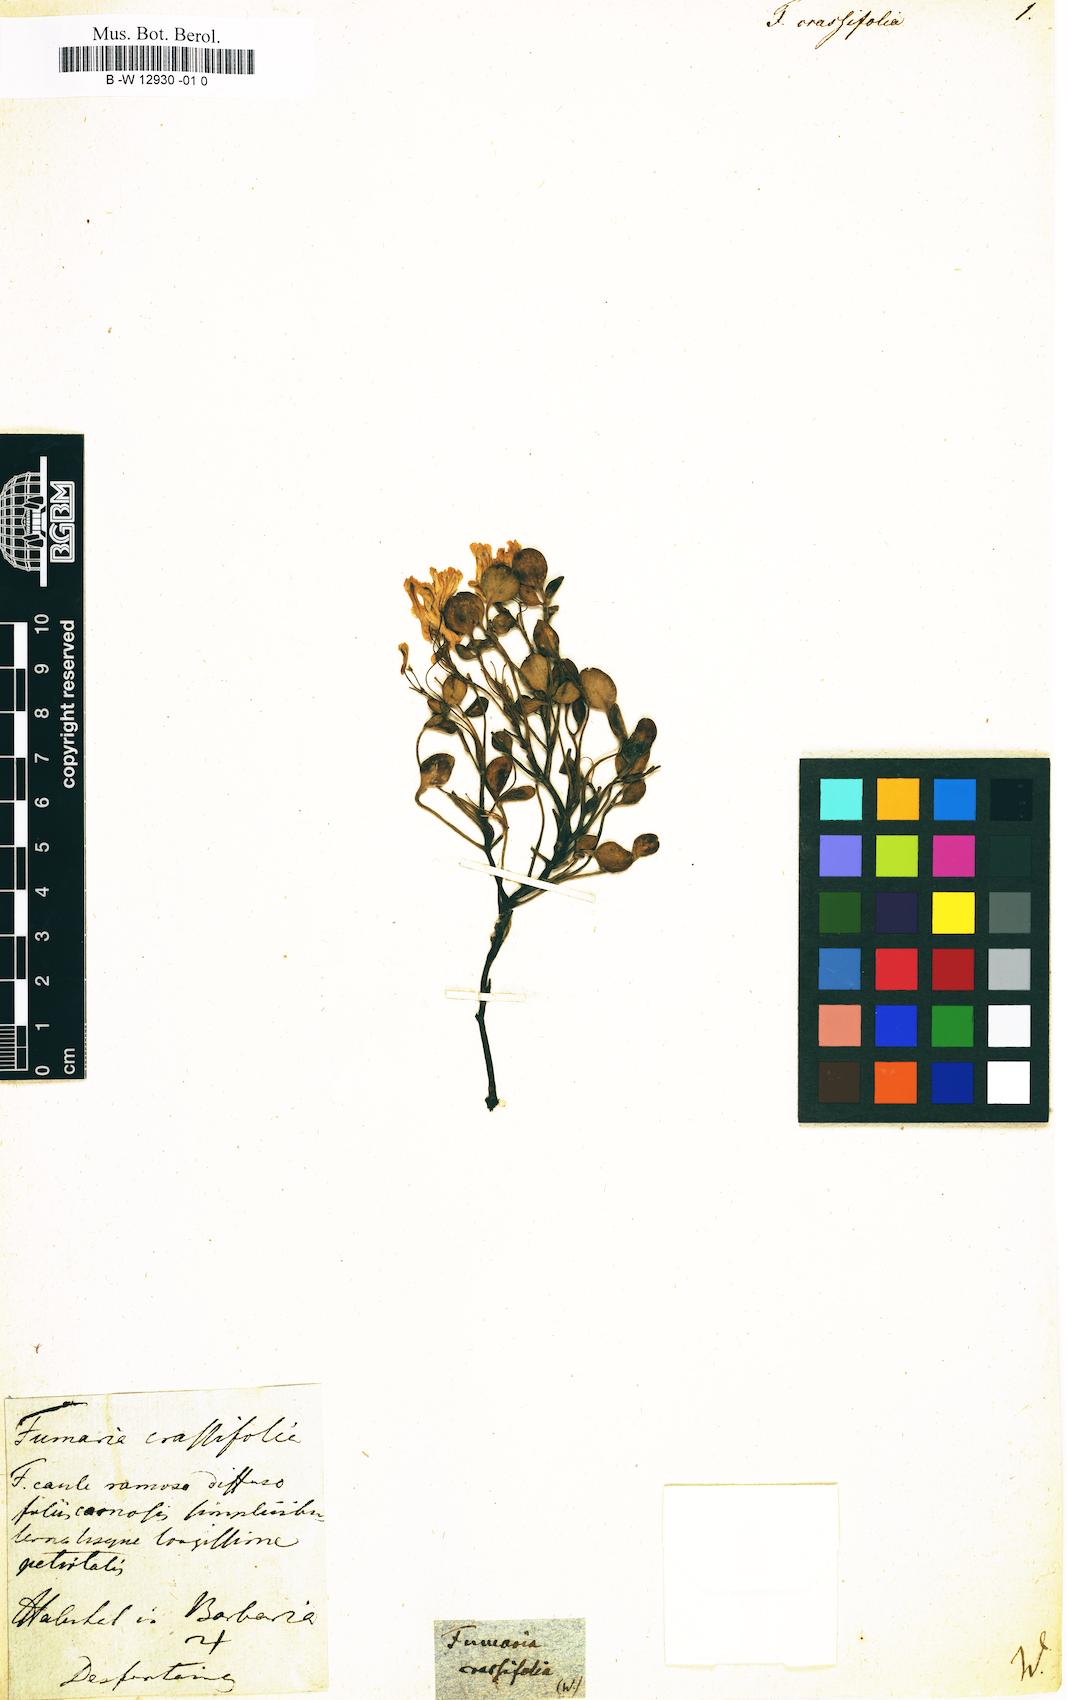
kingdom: Plantae
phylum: Tracheophyta
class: Magnoliopsida
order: Ranunculales
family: Papaveraceae
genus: Rupicapnos
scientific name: Rupicapnos africana
